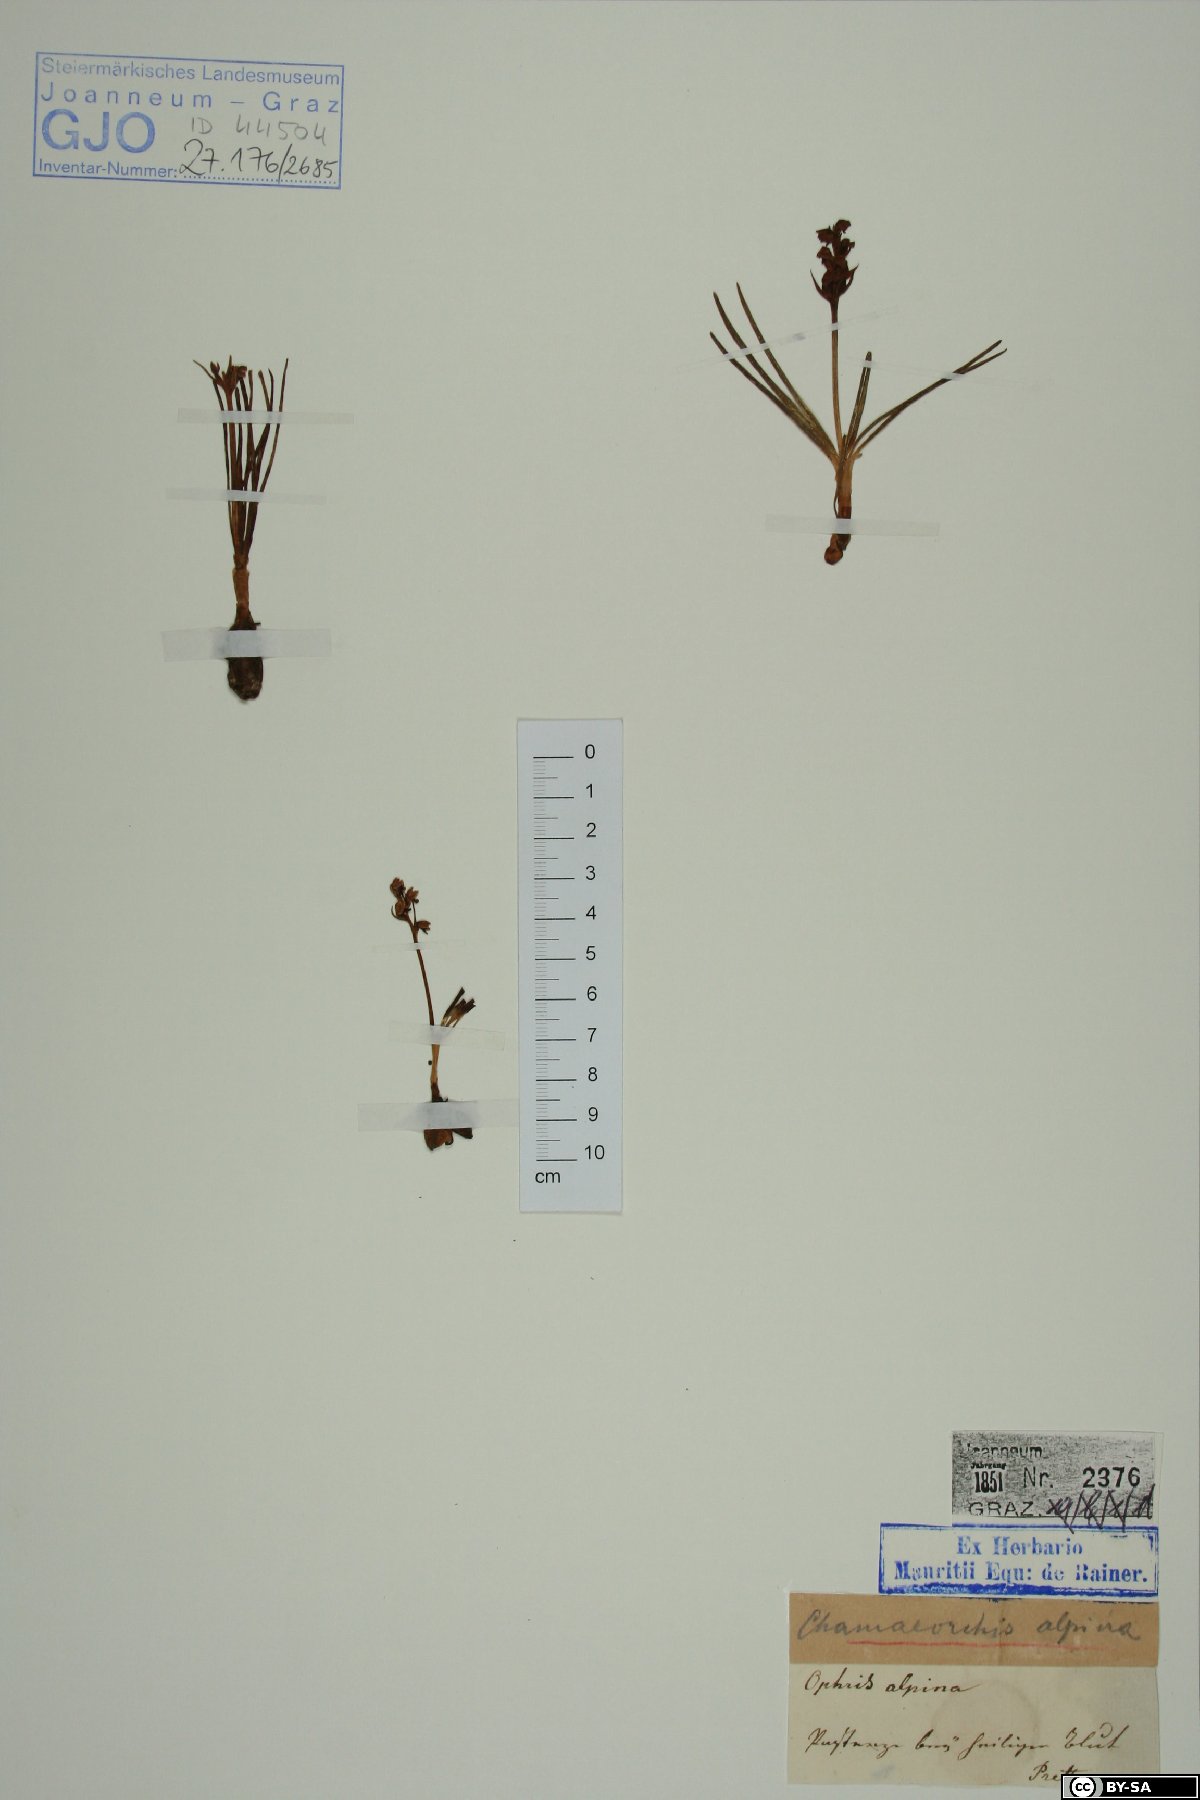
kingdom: Plantae
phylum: Tracheophyta
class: Liliopsida
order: Asparagales
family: Orchidaceae
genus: Chamorchis
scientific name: Chamorchis alpina
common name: Alpine chamorchis
